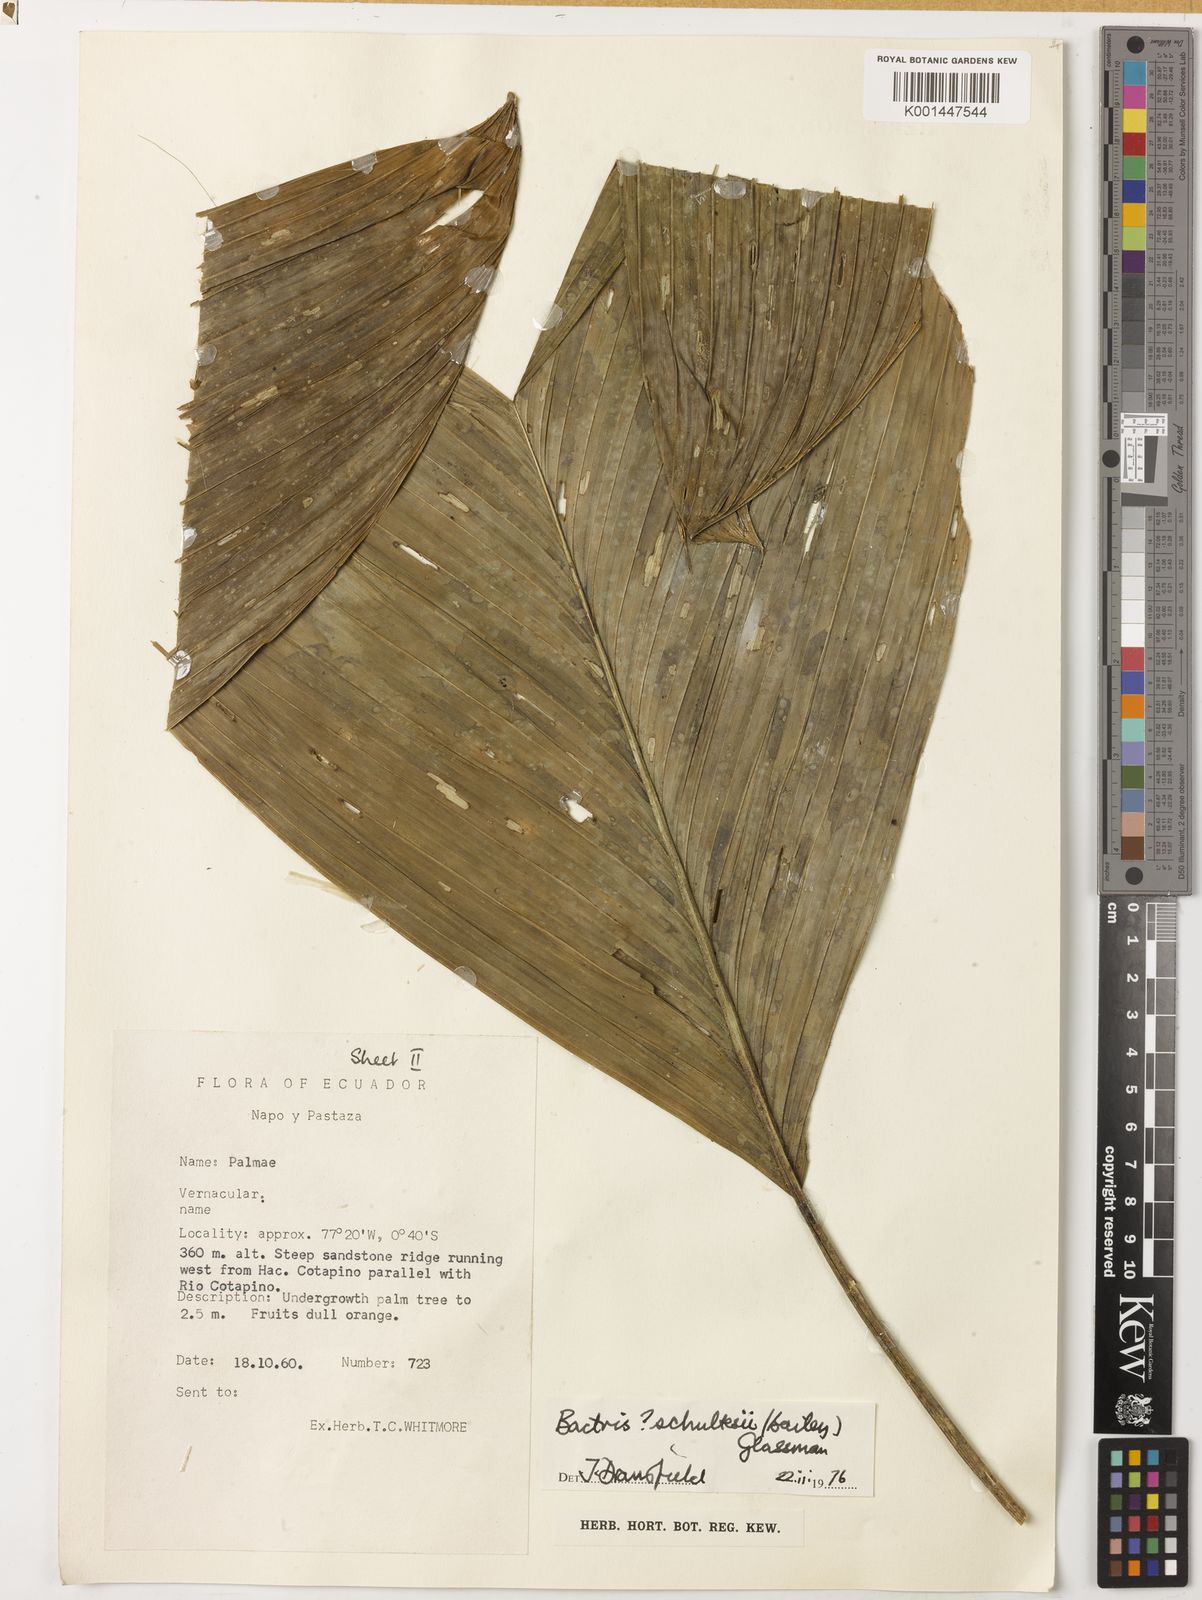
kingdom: Plantae
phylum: Tracheophyta
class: Liliopsida
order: Arecales
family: Arecaceae
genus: Bactris
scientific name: Bactris schultesii
